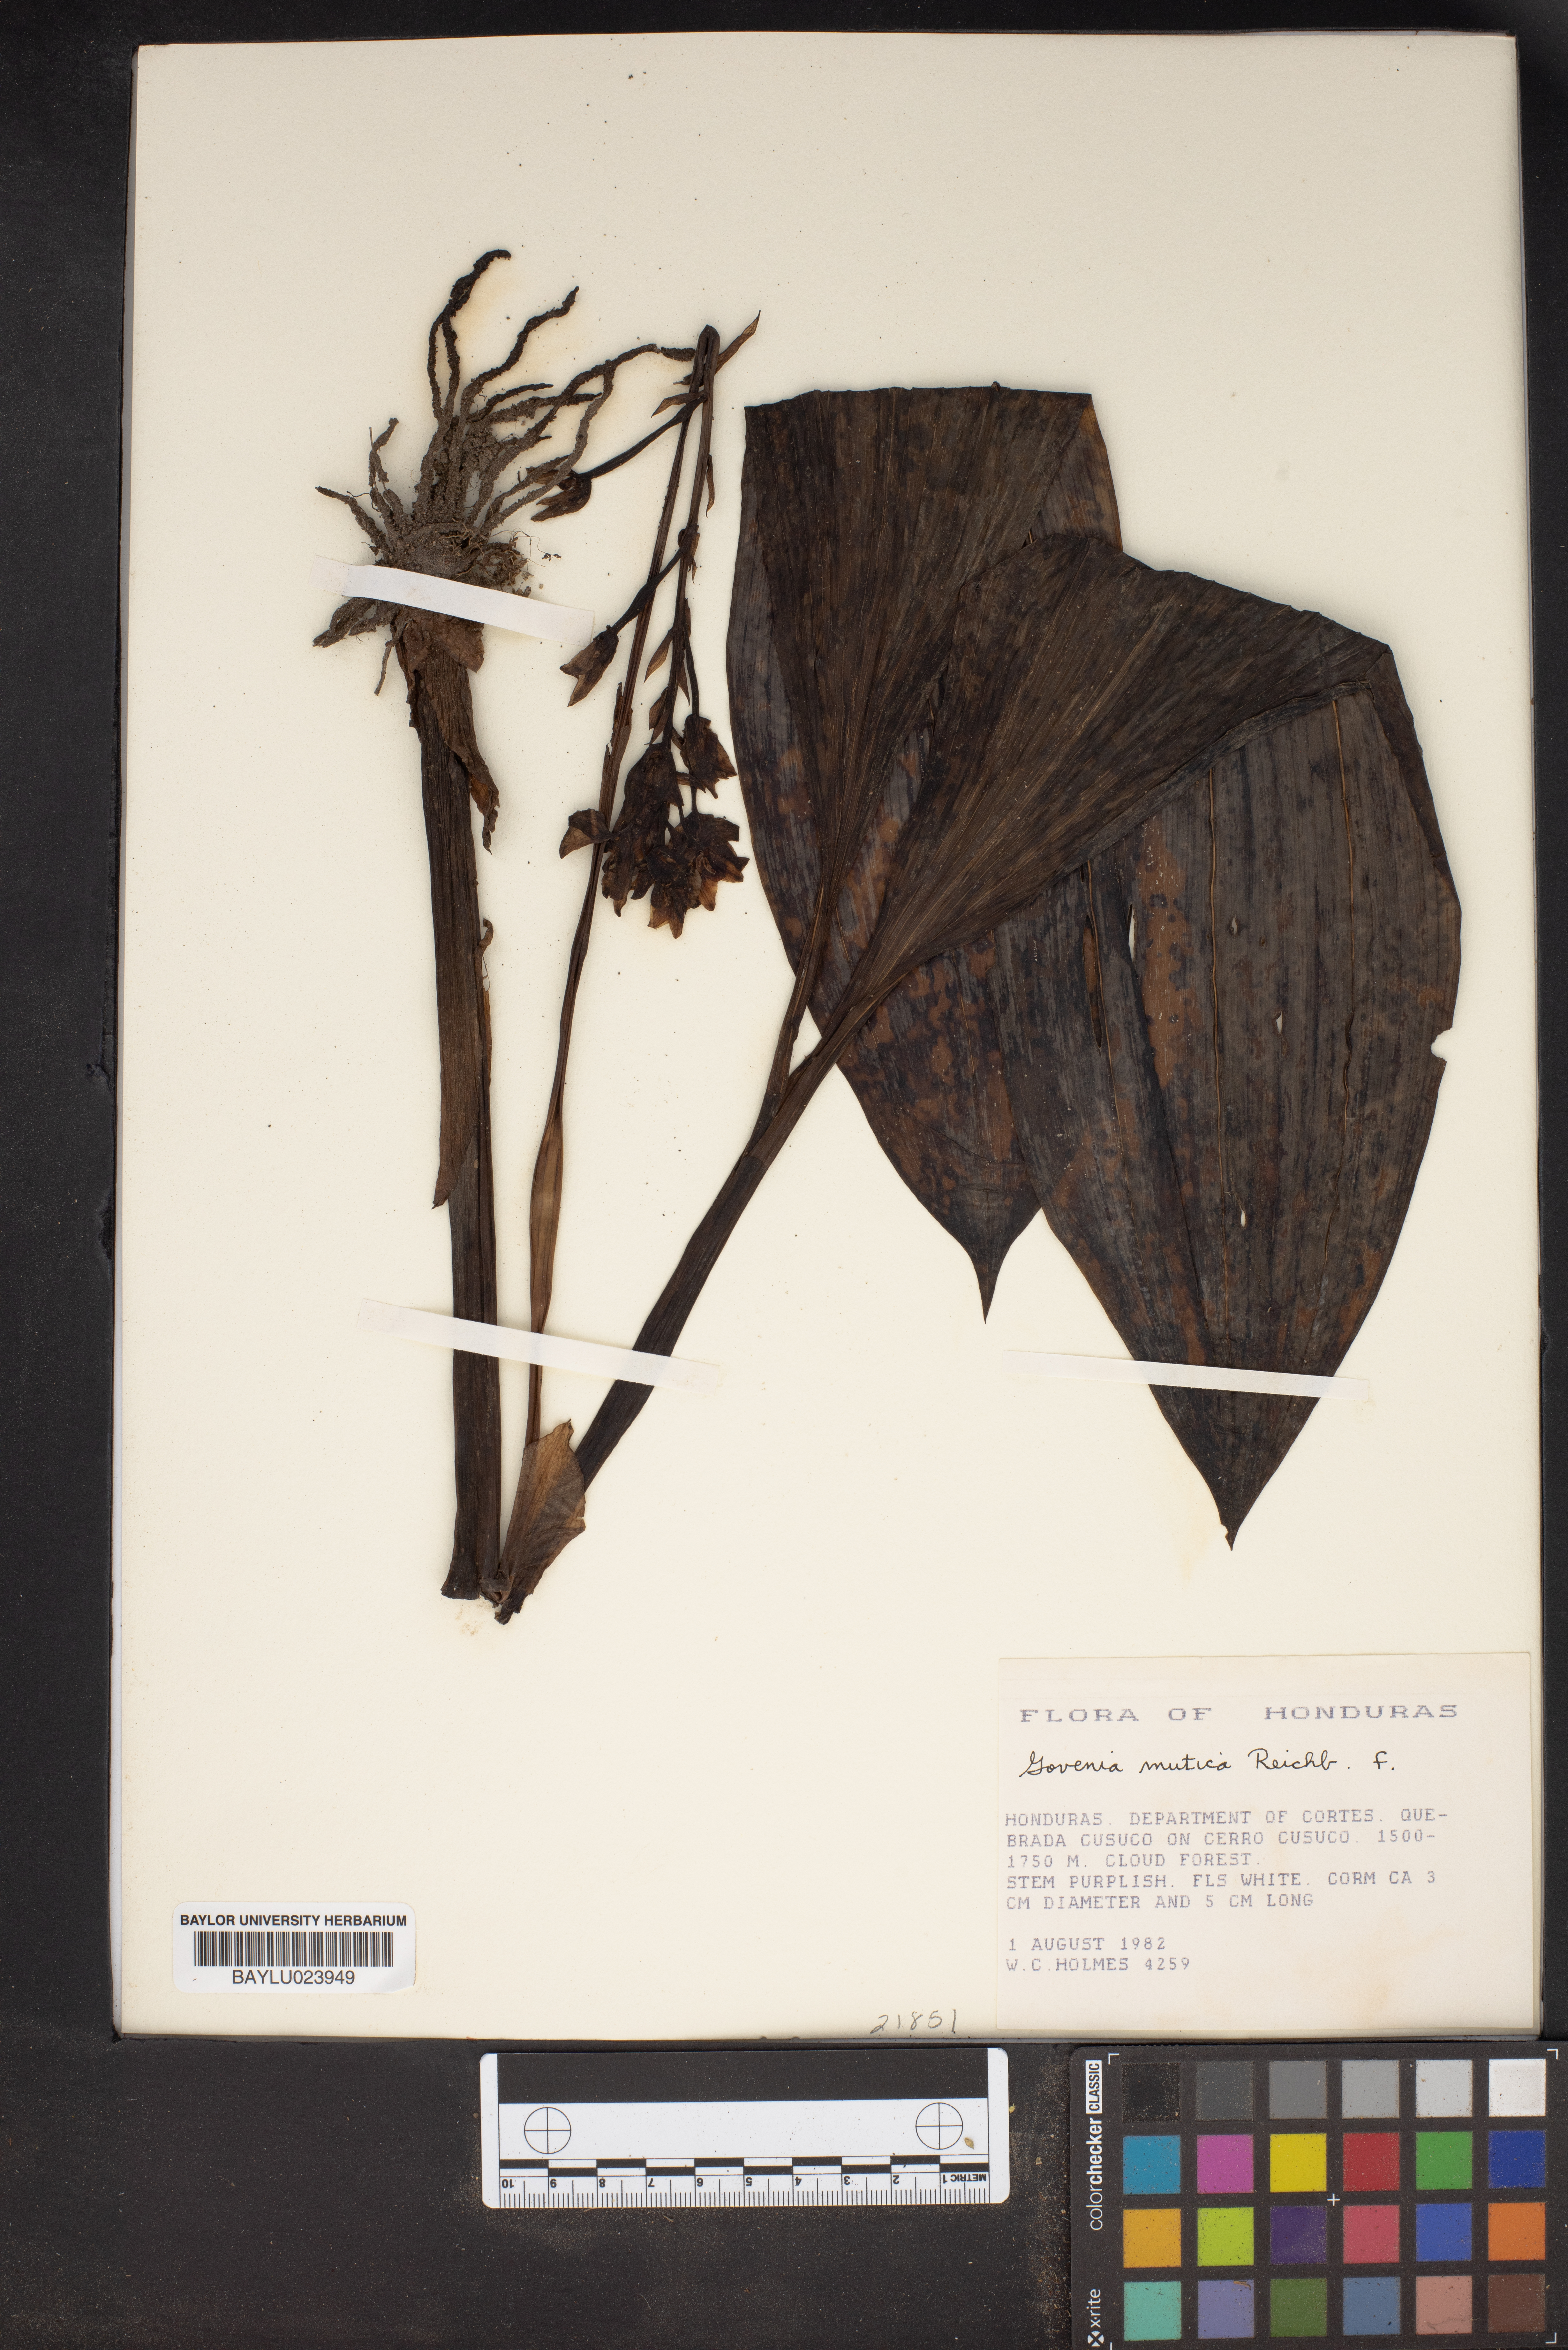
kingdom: Plantae
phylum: Tracheophyta
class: Liliopsida
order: Asparagales
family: Orchidaceae
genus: Govenia
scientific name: Govenia alba
